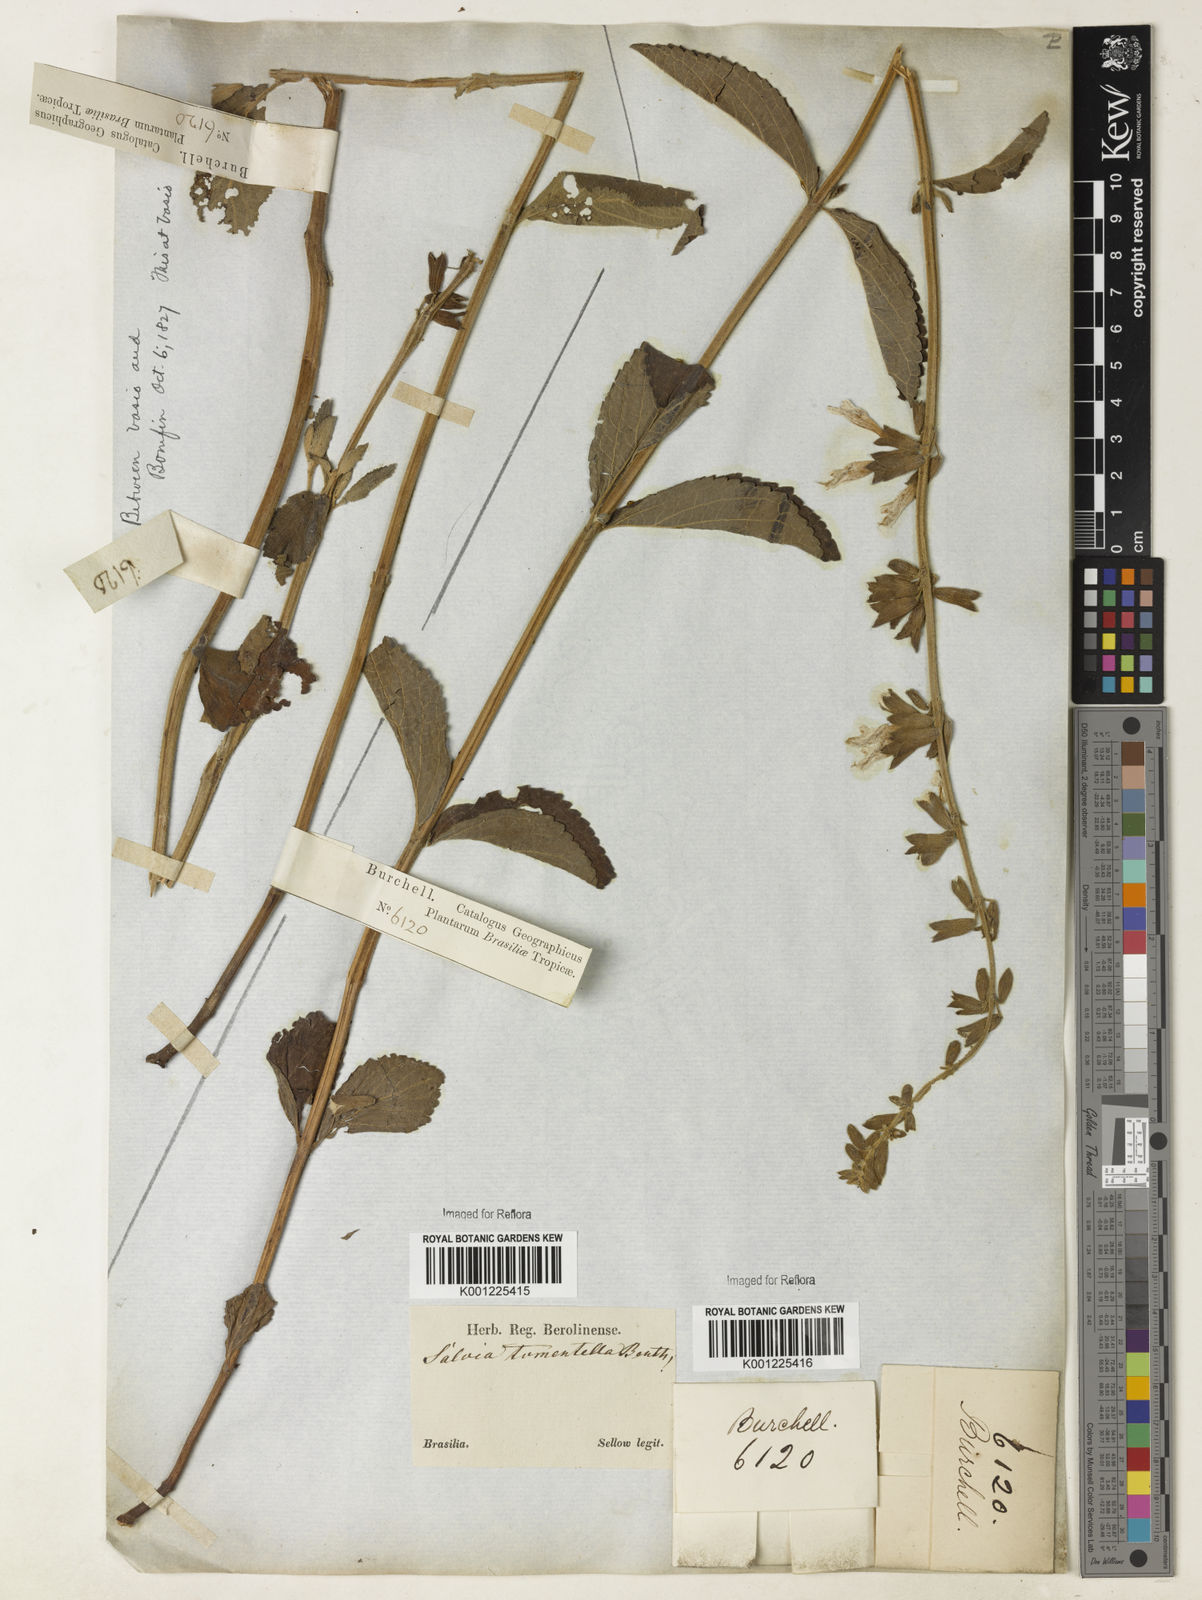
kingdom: Plantae
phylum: Tracheophyta
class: Magnoliopsida
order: Lamiales
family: Lamiaceae
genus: Salvia
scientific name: Salvia tomentella
